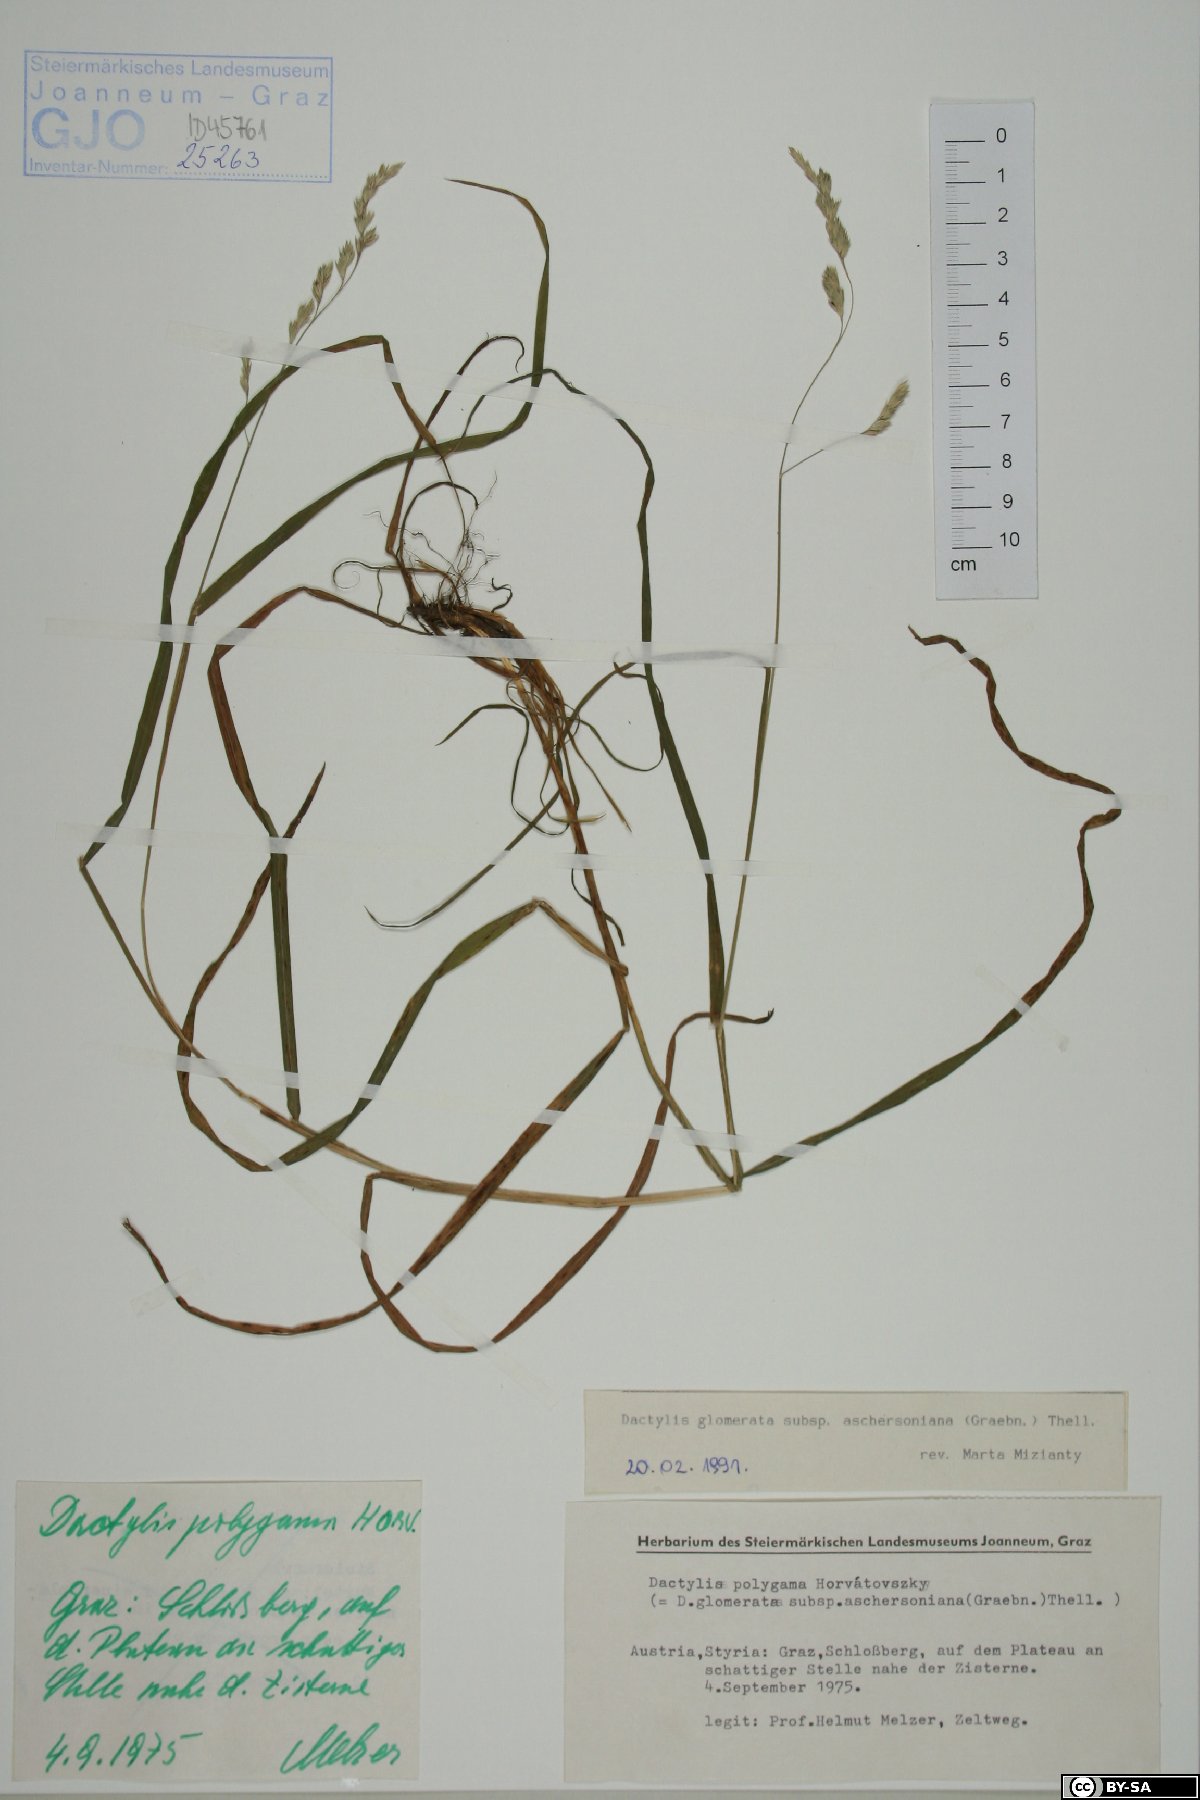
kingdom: Plantae
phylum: Tracheophyta
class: Liliopsida
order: Poales
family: Poaceae
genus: Dactylis
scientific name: Dactylis glomerata
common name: Orchardgrass
